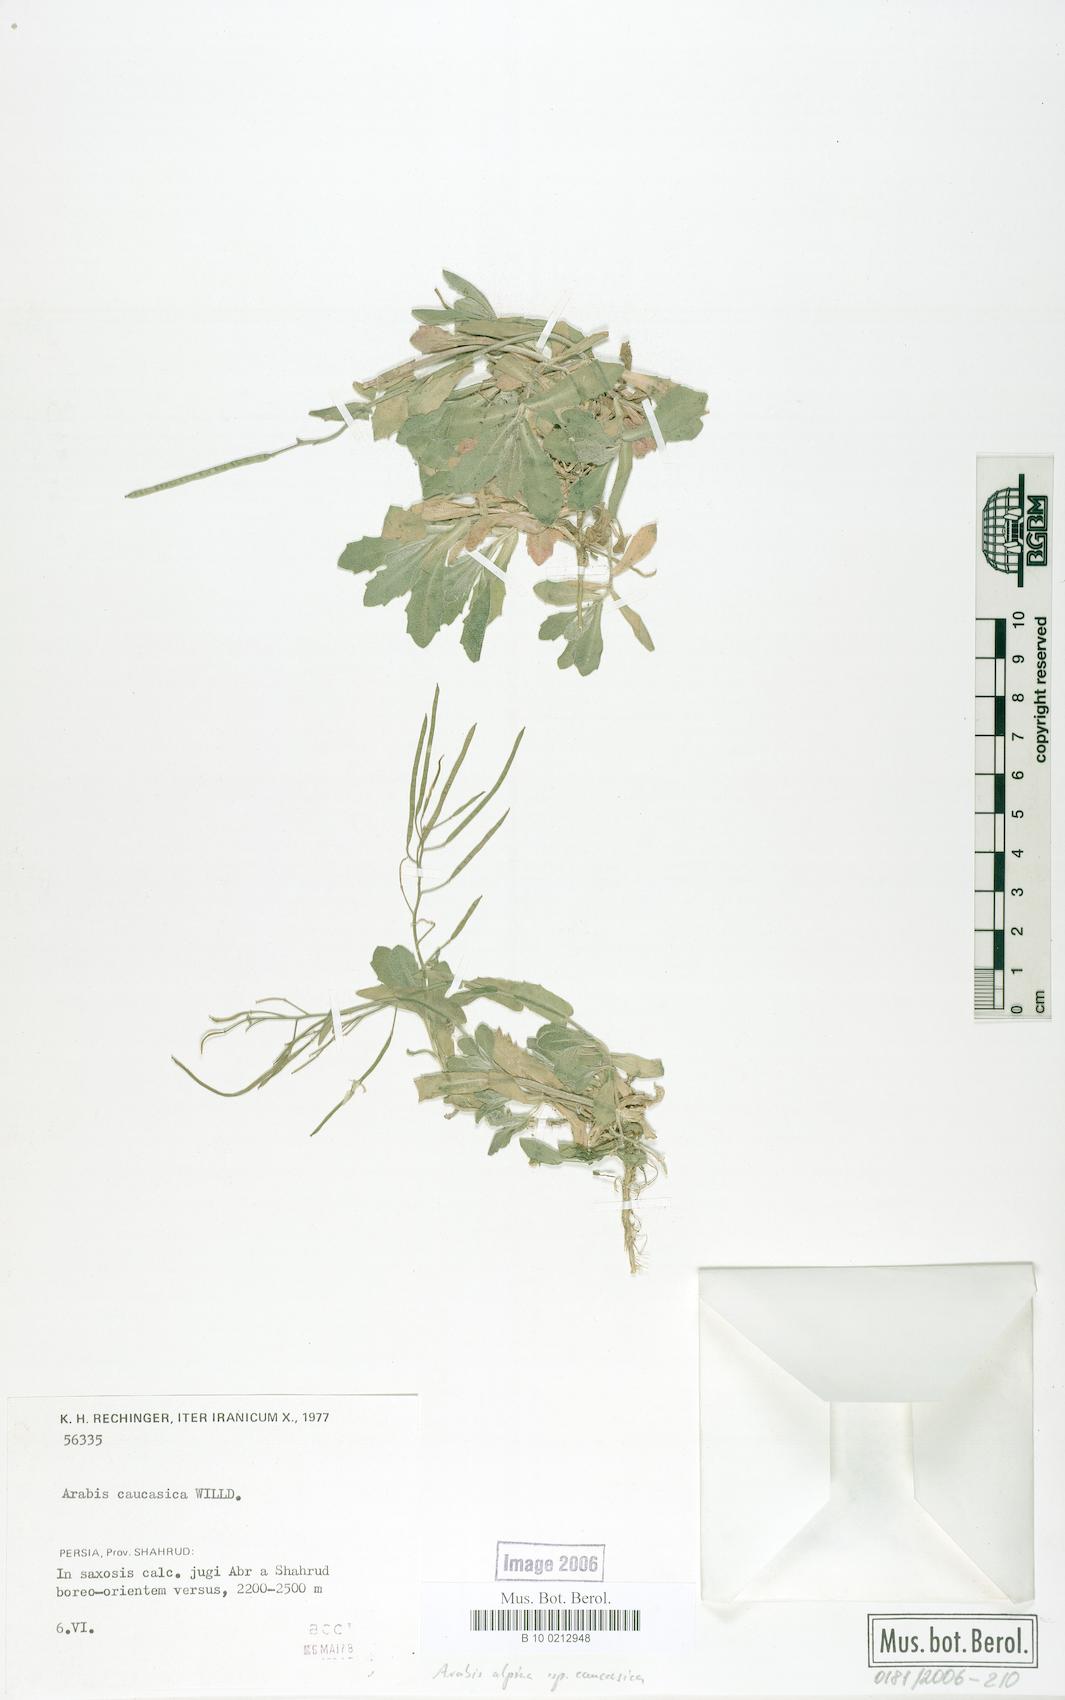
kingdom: Plantae
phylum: Tracheophyta
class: Magnoliopsida
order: Brassicales
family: Brassicaceae
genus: Arabis
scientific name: Arabis caucasica
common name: Gray rockcress
